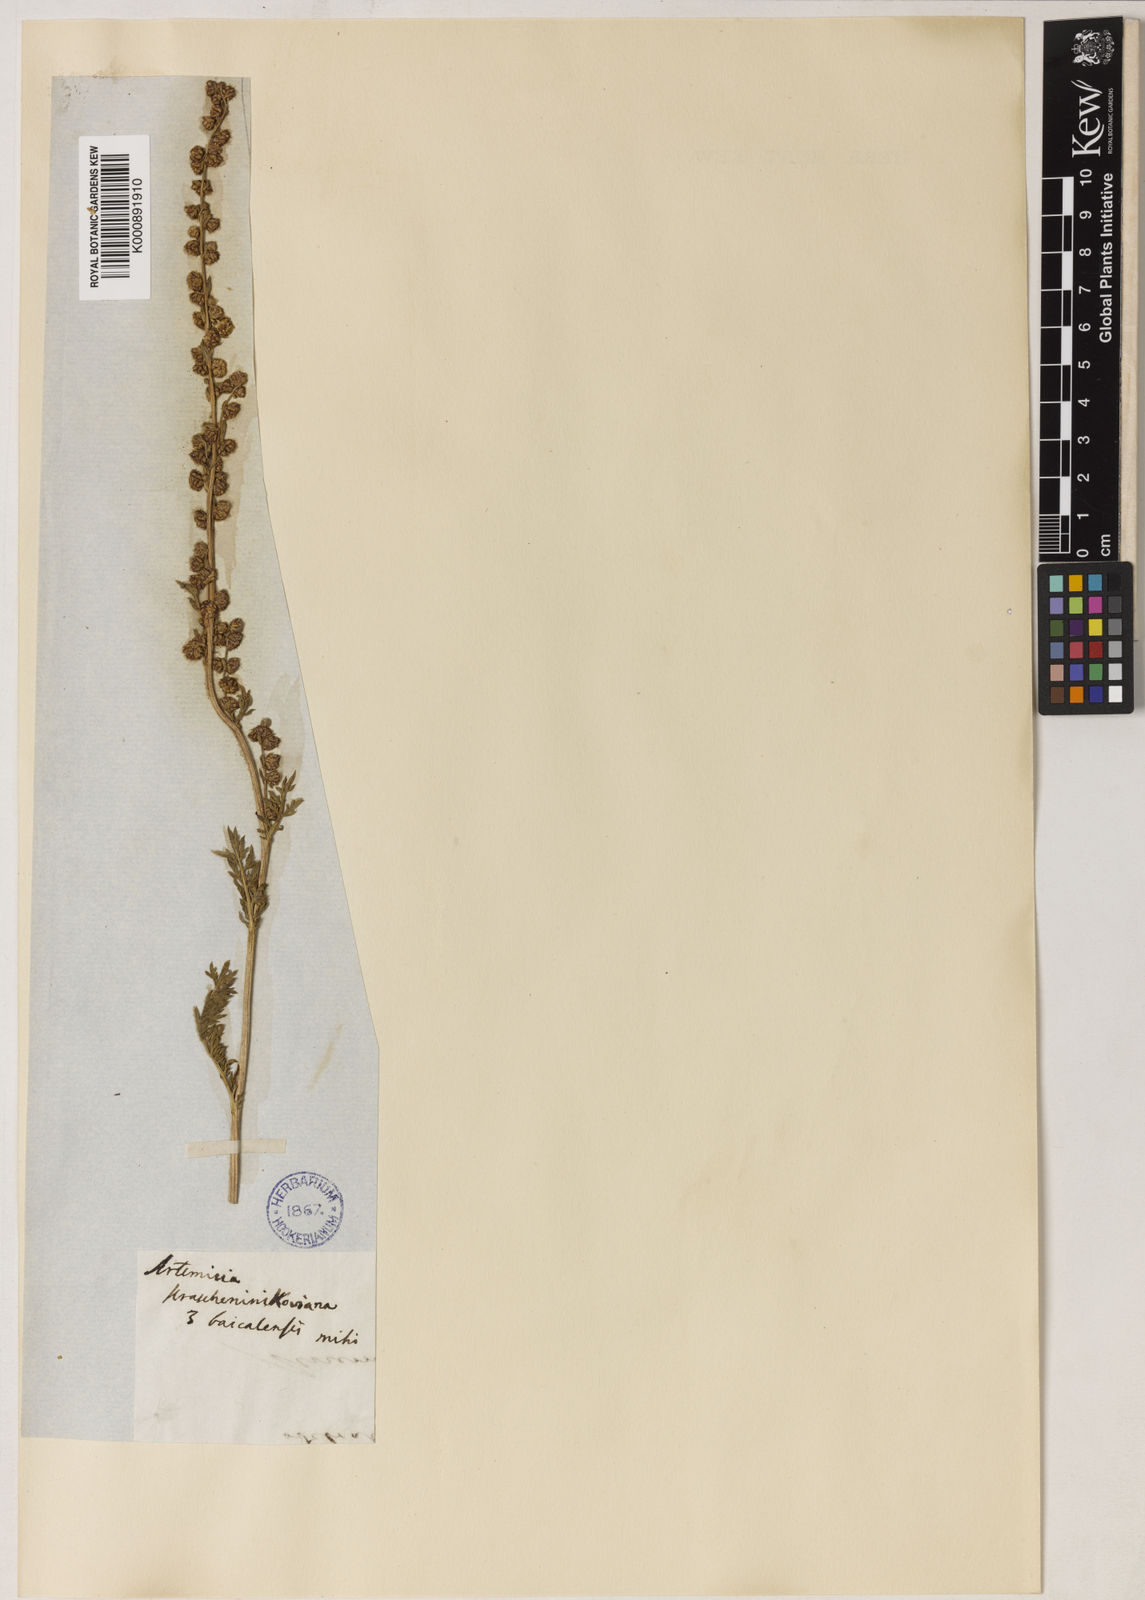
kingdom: Plantae
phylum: Tracheophyta
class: Magnoliopsida
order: Asterales
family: Asteraceae
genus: Artemisia
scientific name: Artemisia tanacetifolia
